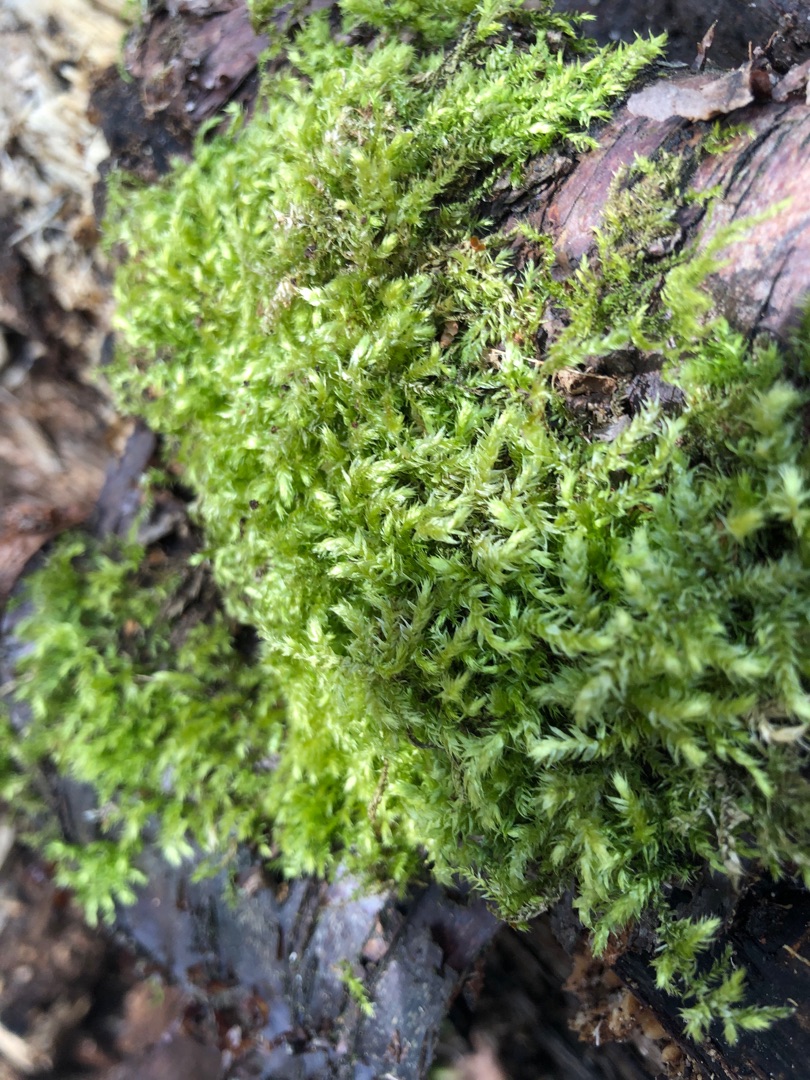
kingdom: Plantae
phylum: Bryophyta
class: Bryopsida
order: Hypnales
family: Brachytheciaceae
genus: Brachythecium
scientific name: Brachythecium rutabulum
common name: Almindelig kortkapsel
